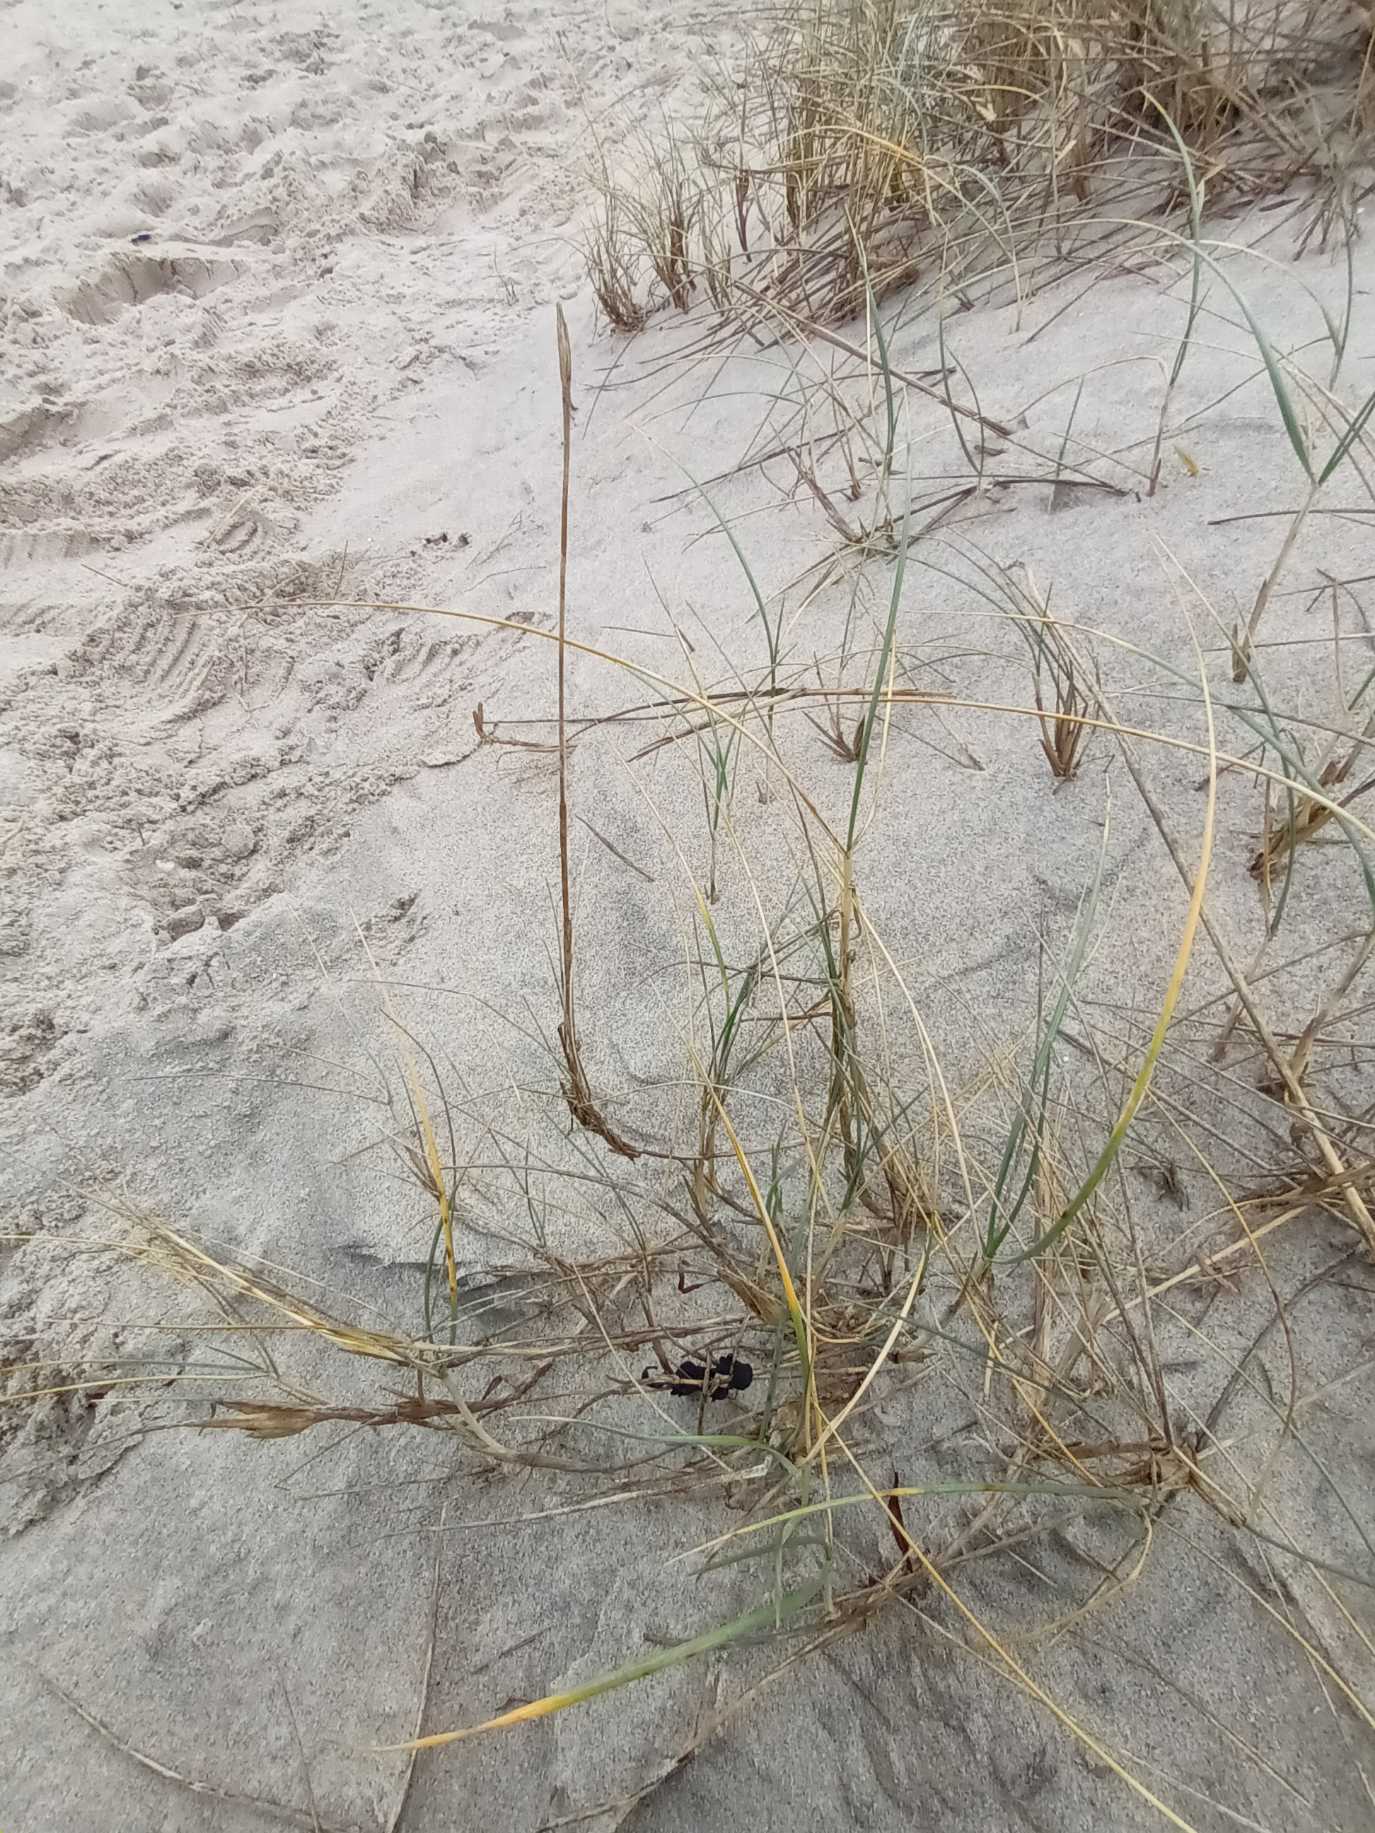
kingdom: Plantae
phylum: Tracheophyta
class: Liliopsida
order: Poales
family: Poaceae
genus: Thinopyrum
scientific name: Thinopyrum junceum
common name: Strand-kvik
